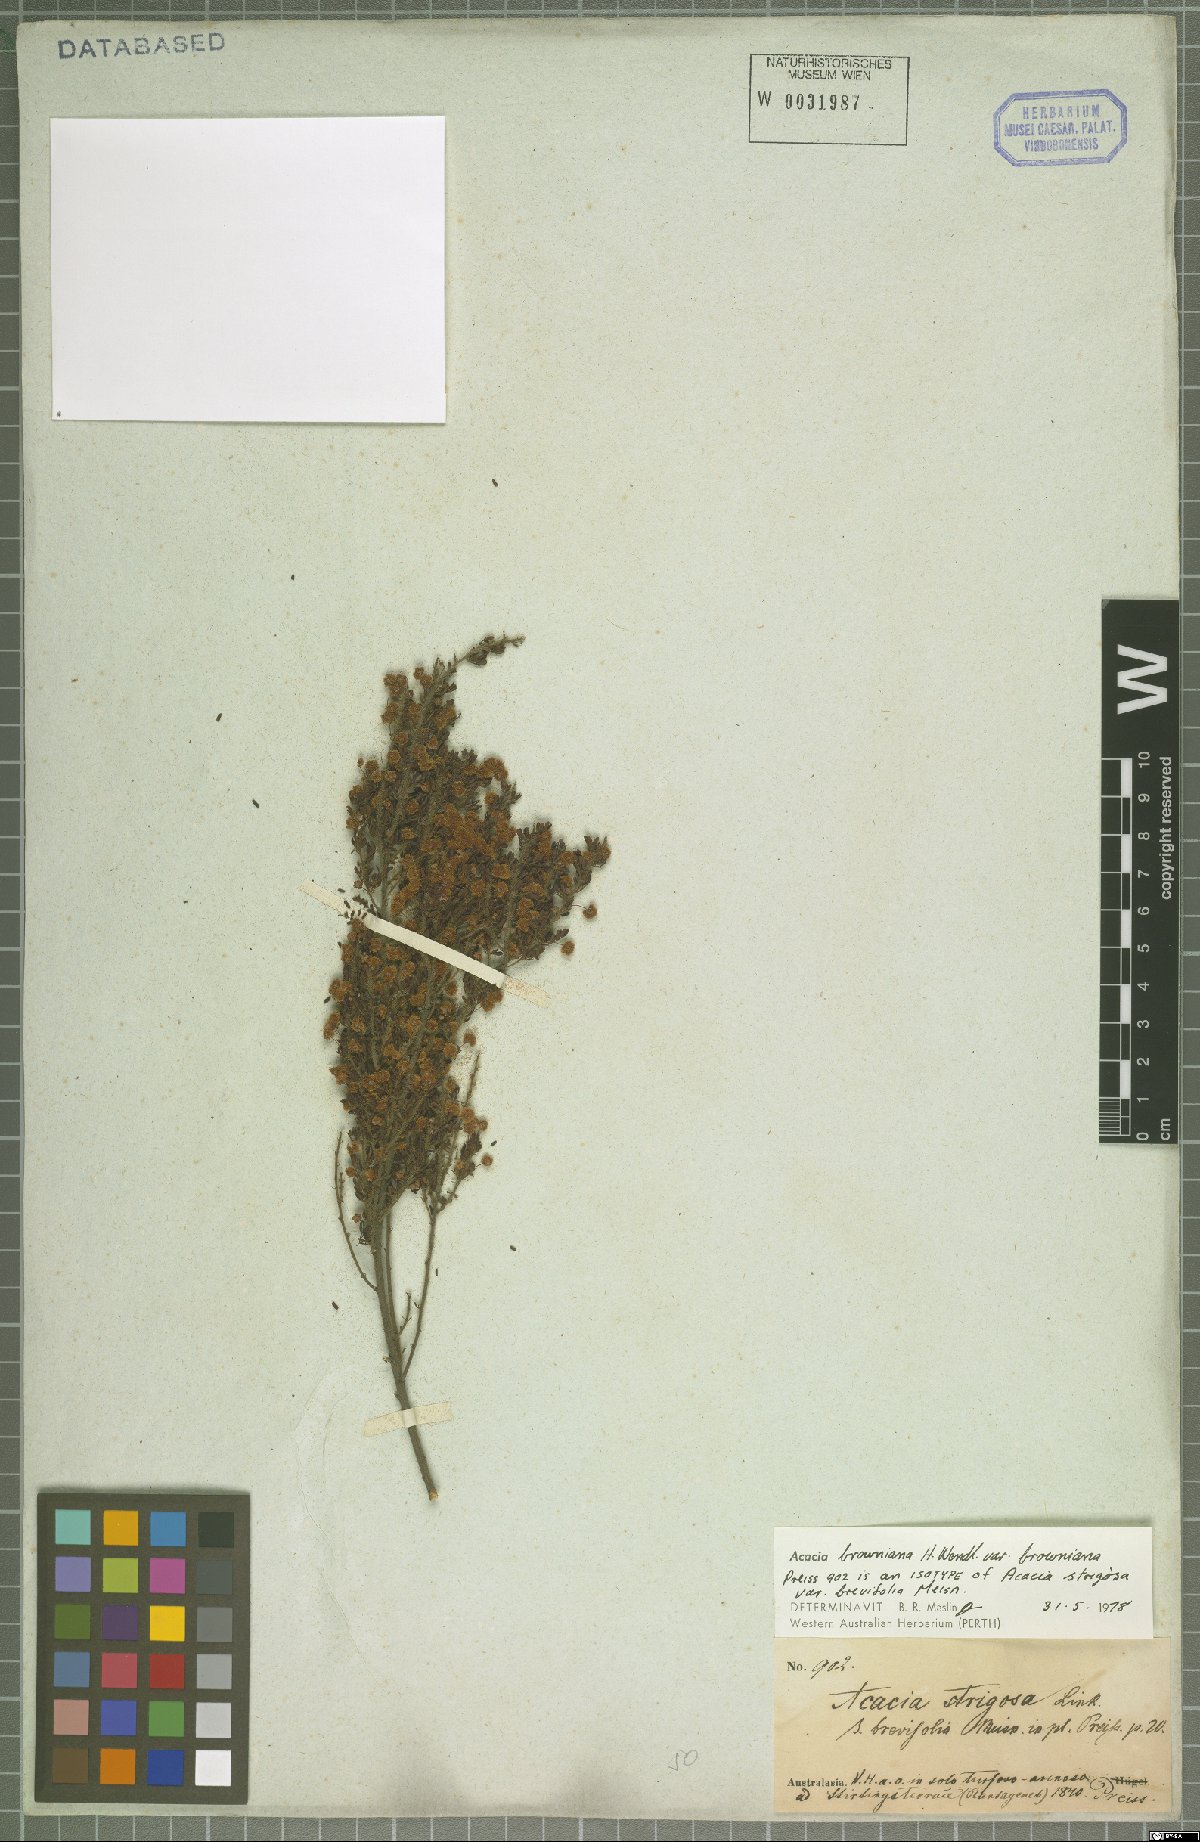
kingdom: Plantae
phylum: Tracheophyta
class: Magnoliopsida
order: Fabales
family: Fabaceae
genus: Acacia
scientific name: Acacia browniana
